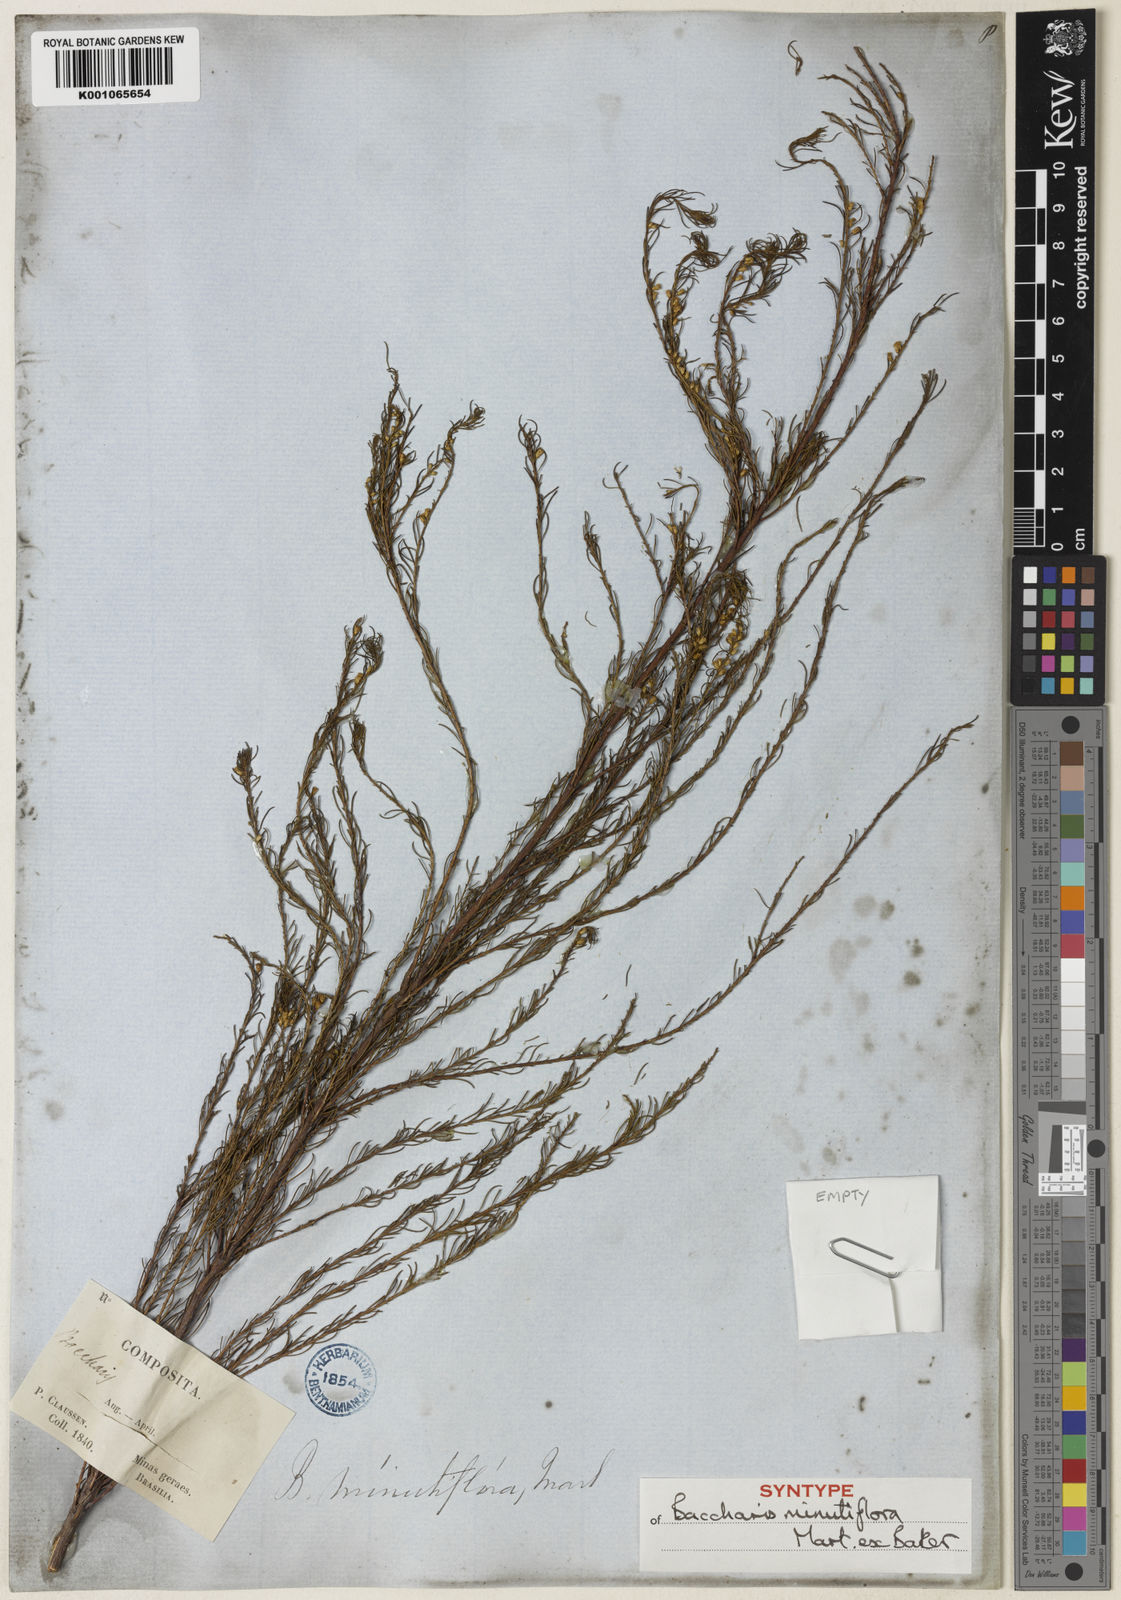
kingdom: Plantae
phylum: Tracheophyta
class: Magnoliopsida
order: Asterales
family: Asteraceae
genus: Baccharis
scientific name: Baccharis minutiflora
